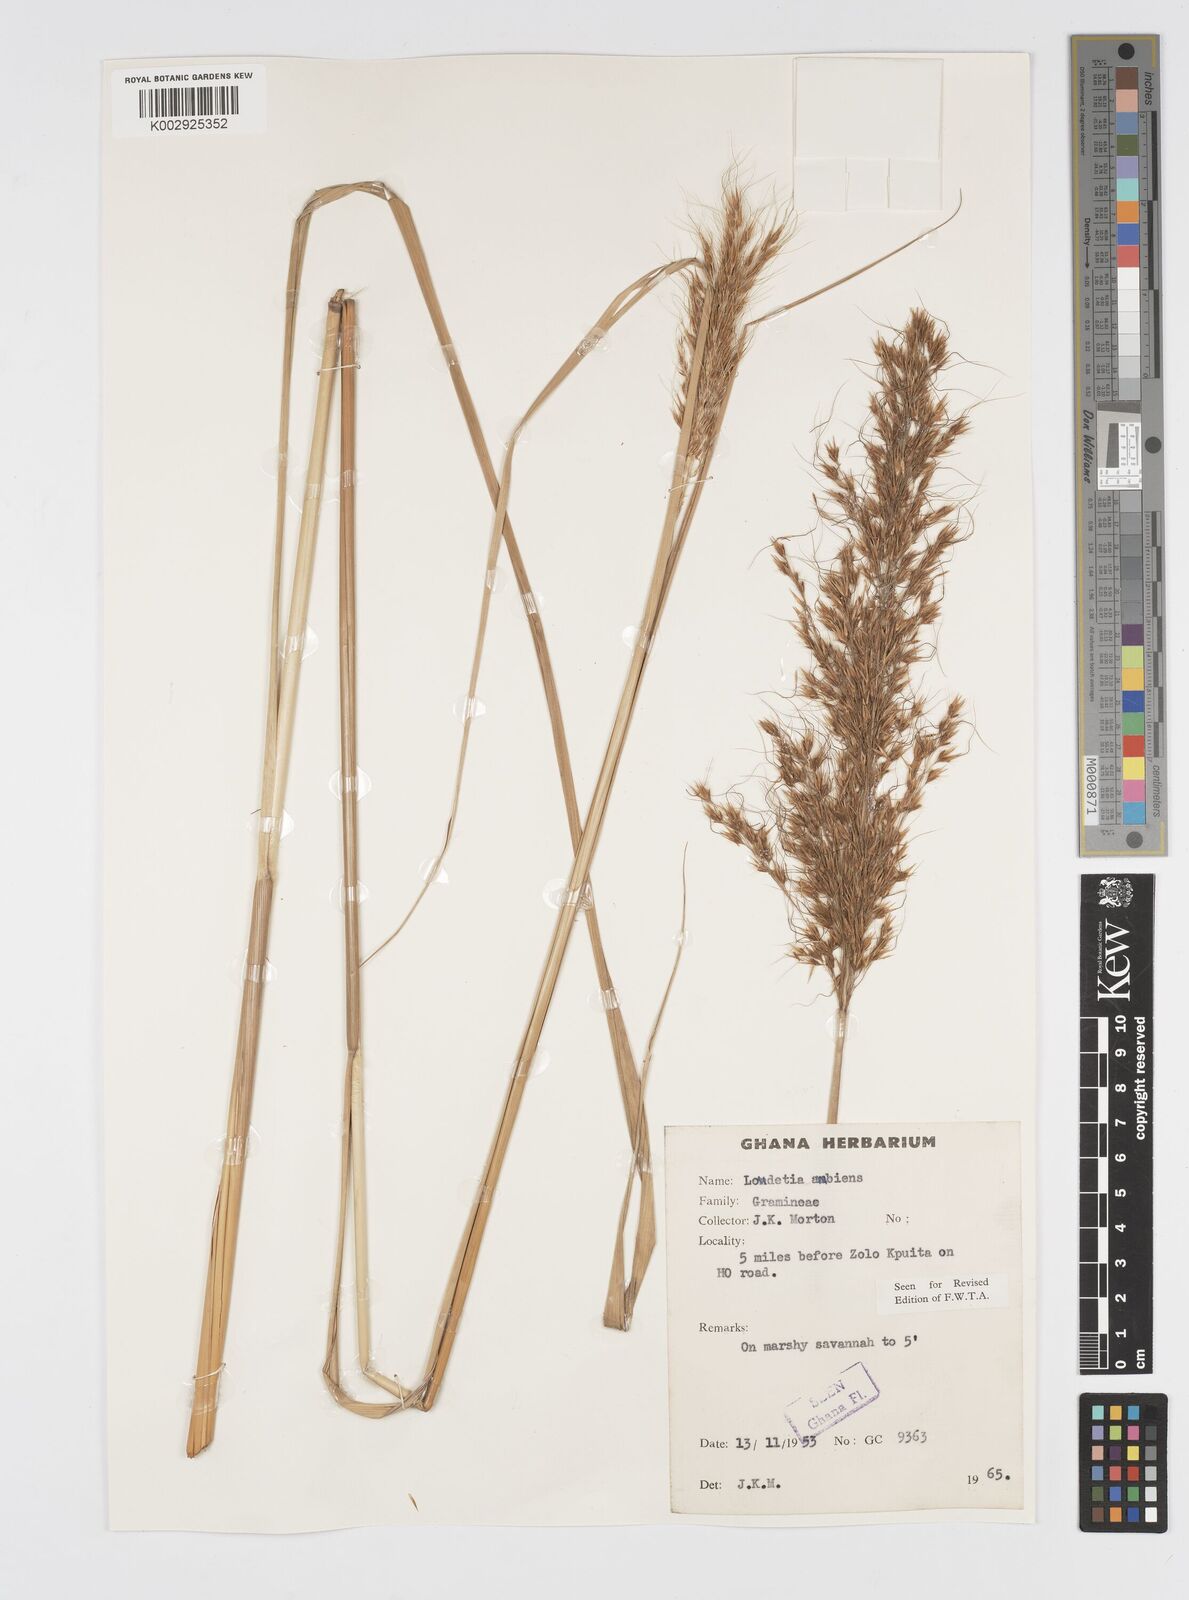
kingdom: Plantae
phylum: Tracheophyta
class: Liliopsida
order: Poales
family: Poaceae
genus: Loudetiopsis
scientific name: Loudetiopsis ambiens
